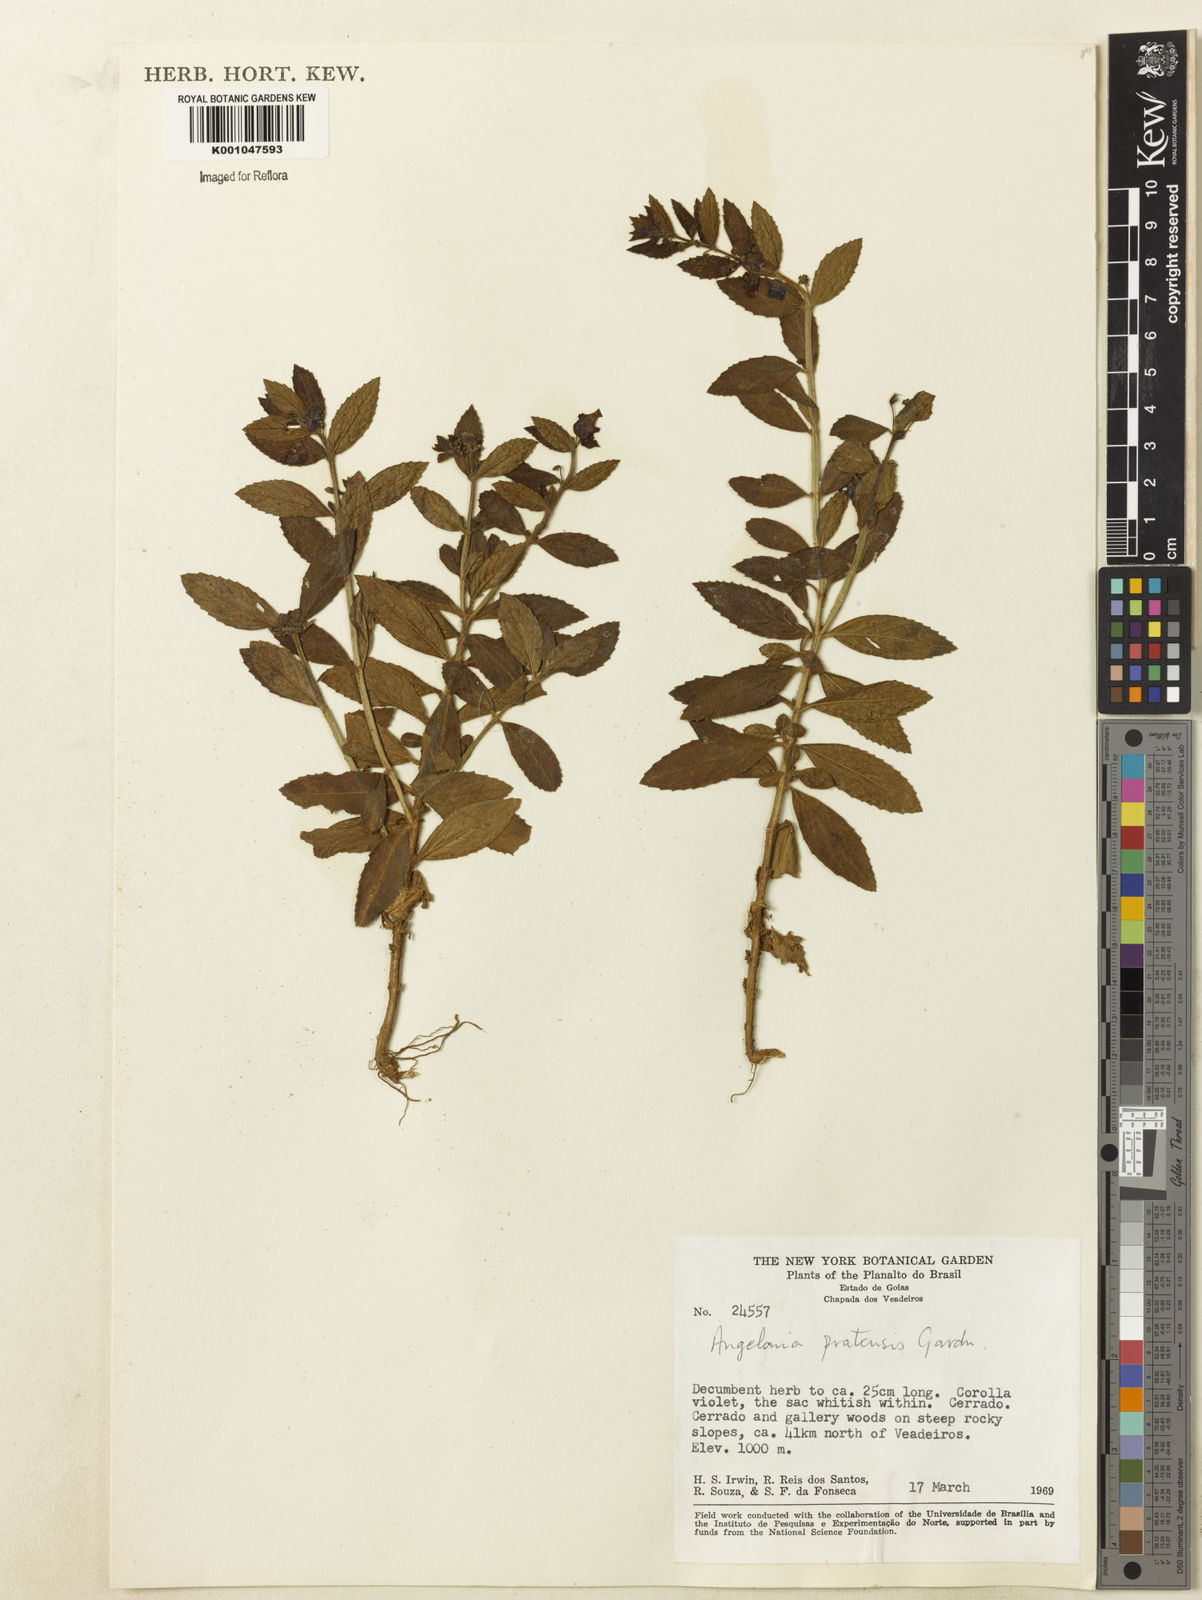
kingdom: Plantae
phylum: Tracheophyta
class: Magnoliopsida
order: Lamiales
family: Plantaginaceae
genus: Angelonia
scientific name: Angelonia pratensis
